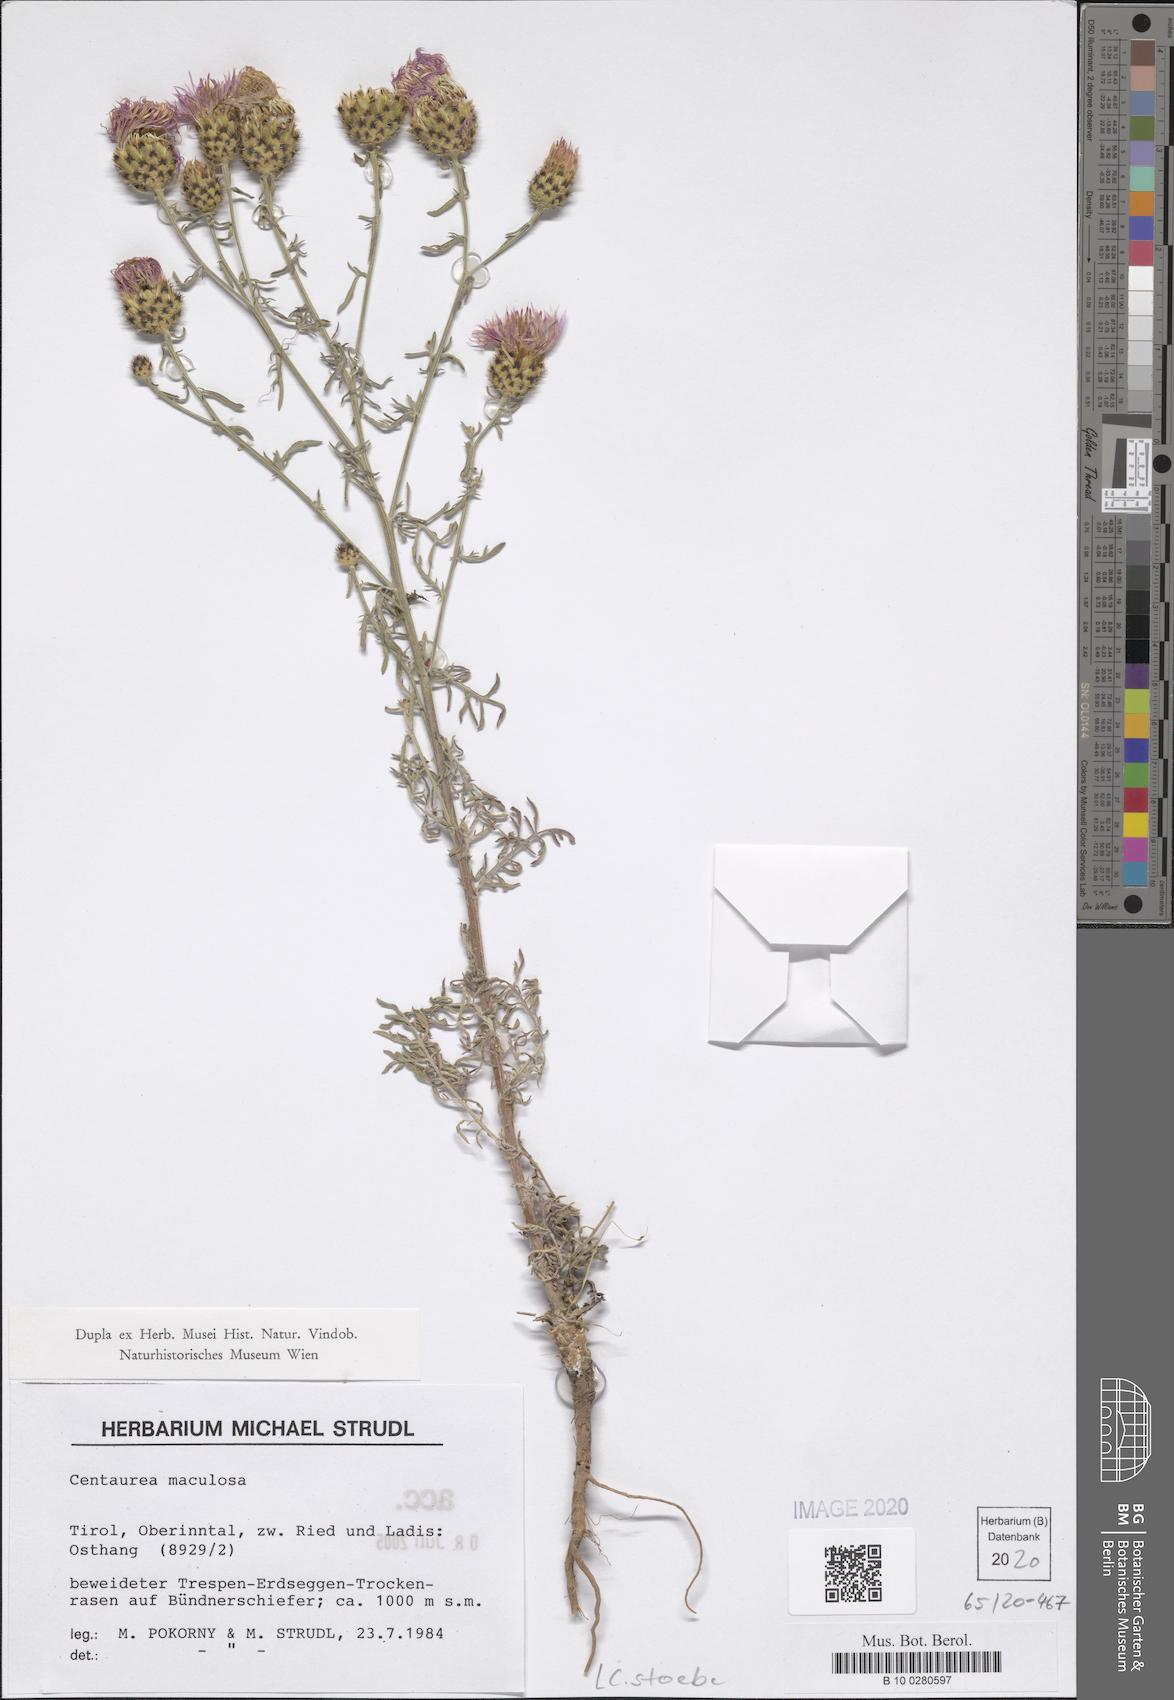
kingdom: Plantae
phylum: Tracheophyta
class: Magnoliopsida
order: Asterales
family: Asteraceae
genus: Centaurea
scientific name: Centaurea stoebe
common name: Spotted knapweed
